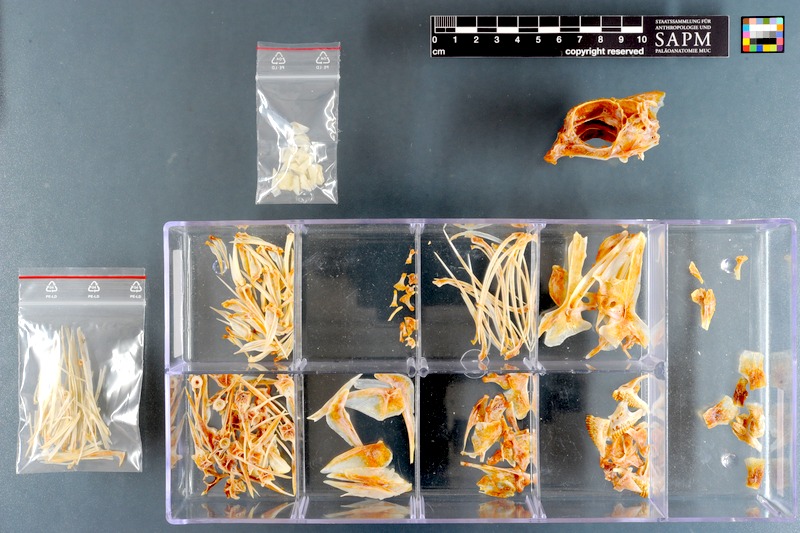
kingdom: Animalia
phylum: Chordata
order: Perciformes
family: Sparidae
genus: Polyamblyodon
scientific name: Polyamblyodon germanum
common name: German seabream
